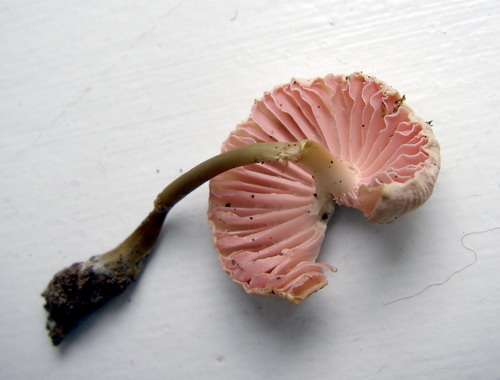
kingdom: Fungi
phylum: Basidiomycota
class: Agaricomycetes
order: Agaricales
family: Mycenaceae
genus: Mycena
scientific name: Mycena galericulata
